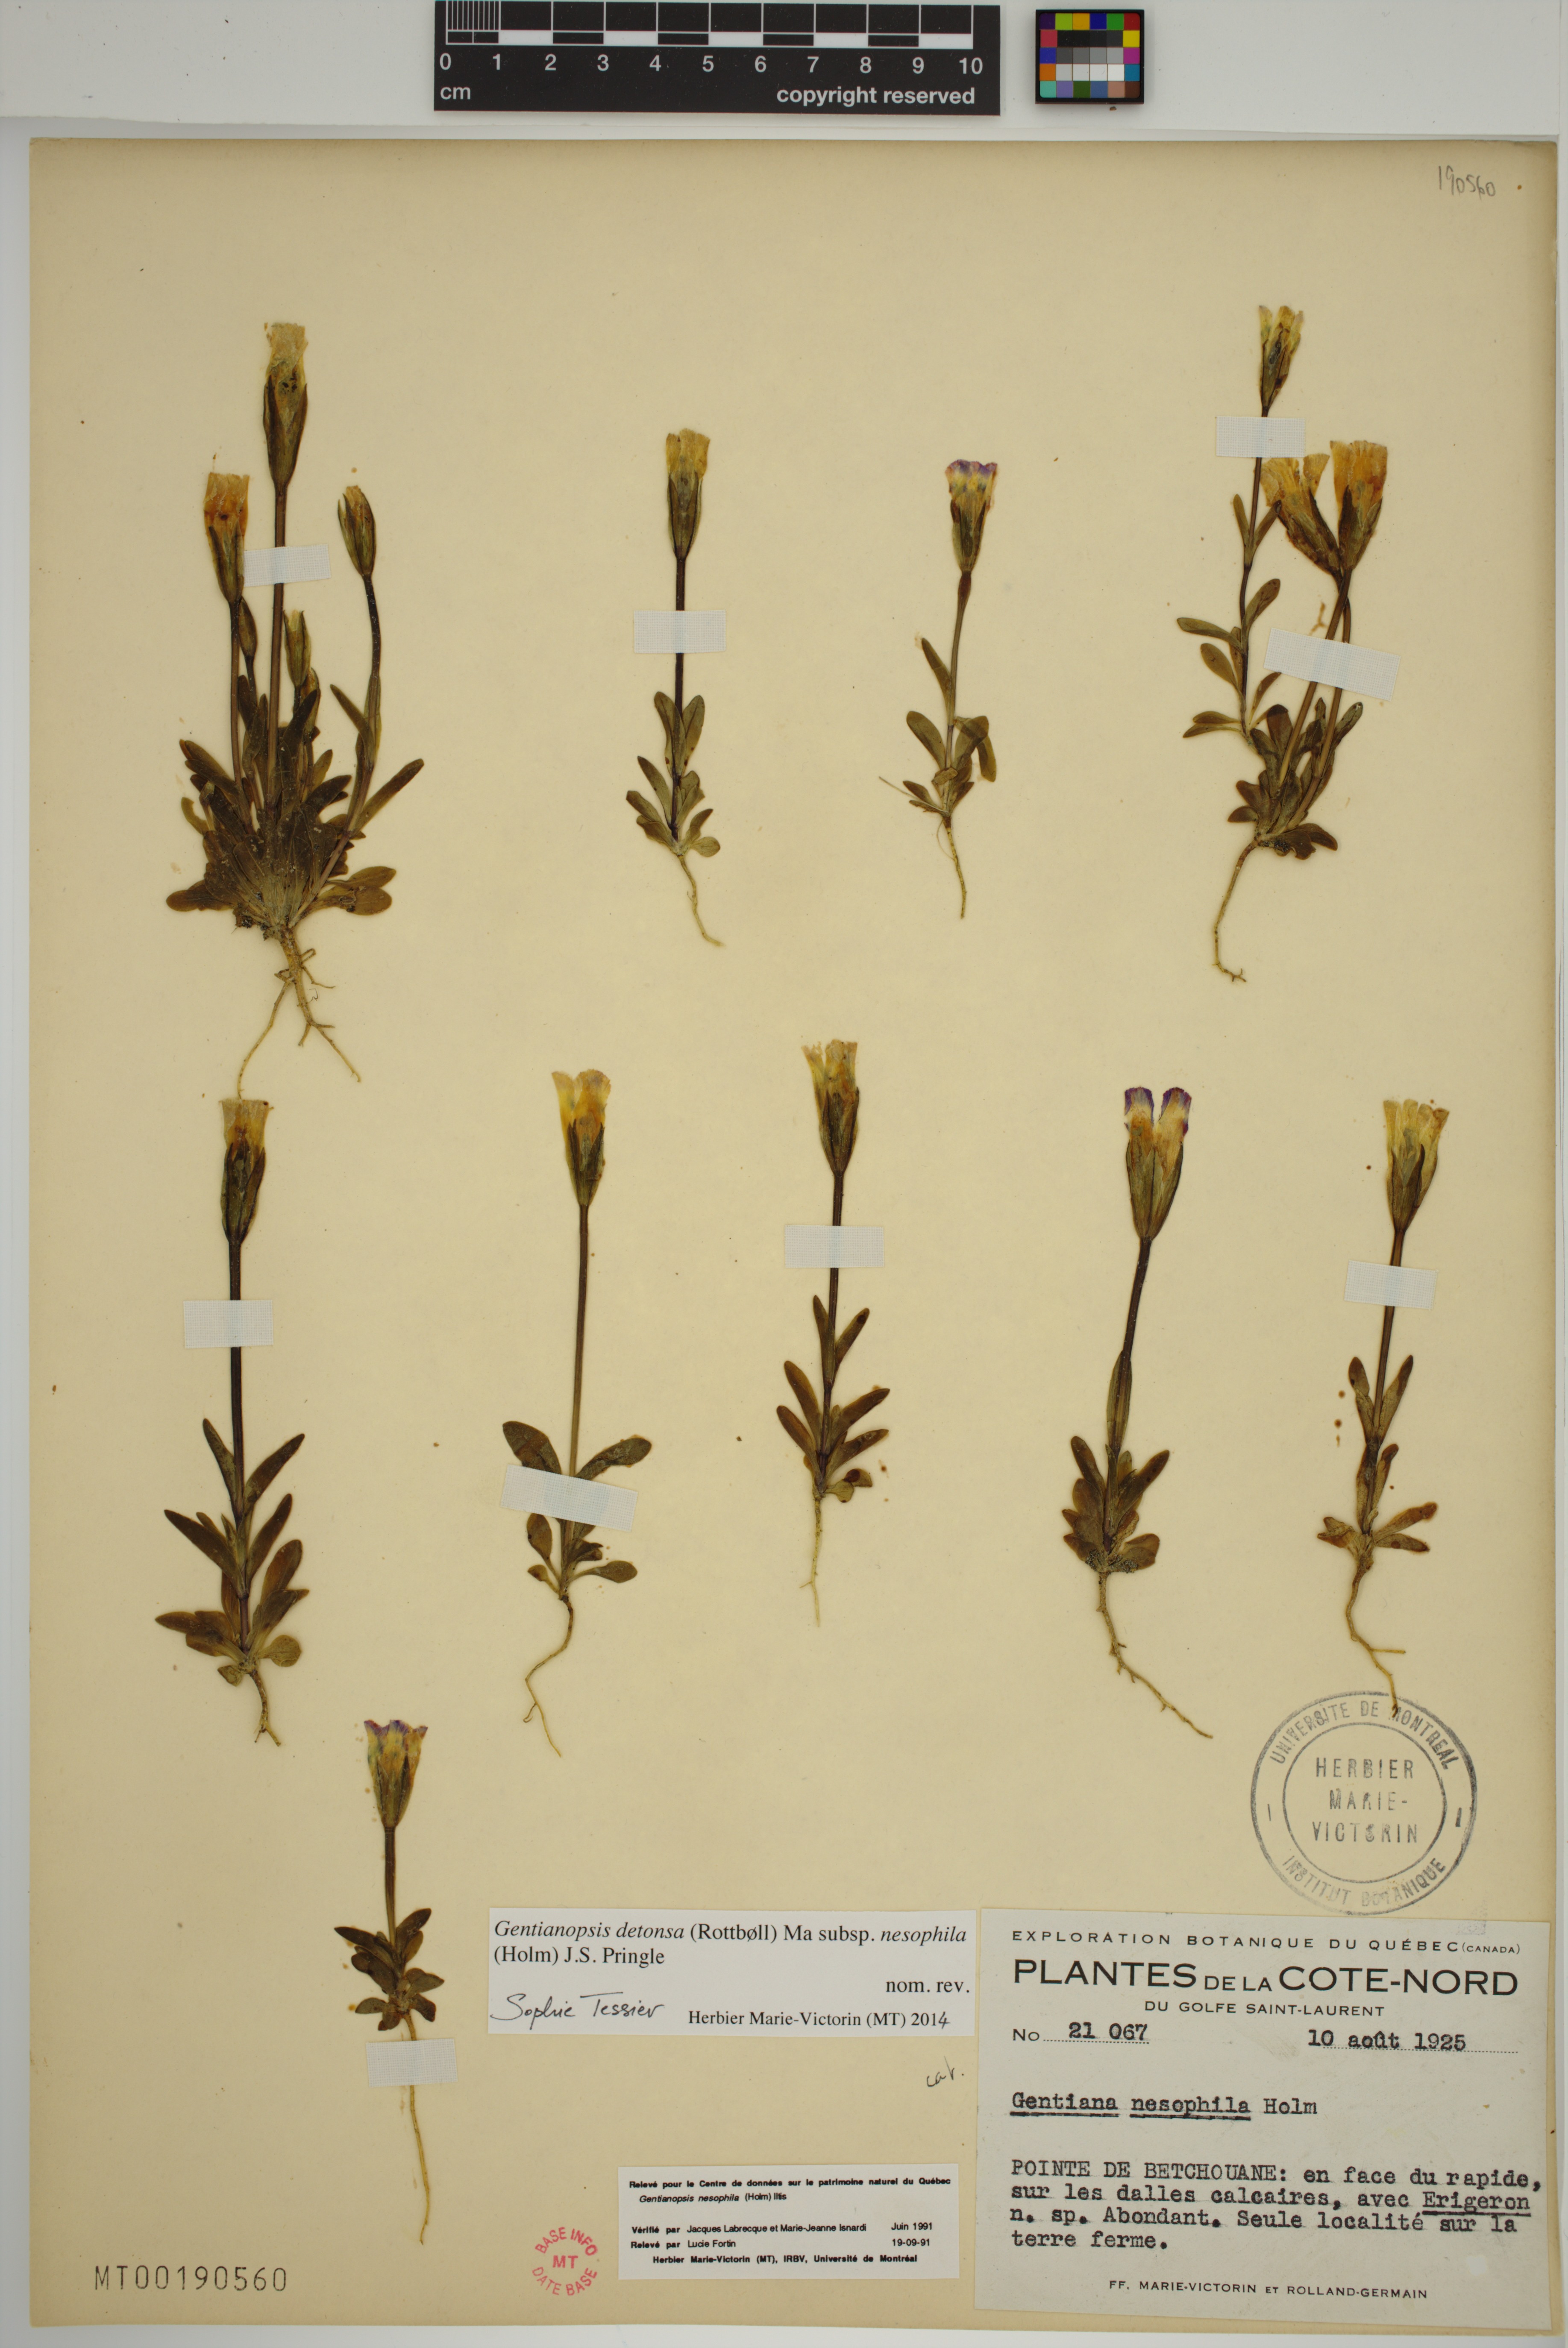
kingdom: Plantae
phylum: Tracheophyta
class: Magnoliopsida
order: Gentianales
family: Gentianaceae
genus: Gentianopsis
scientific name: Gentianopsis nesophila
